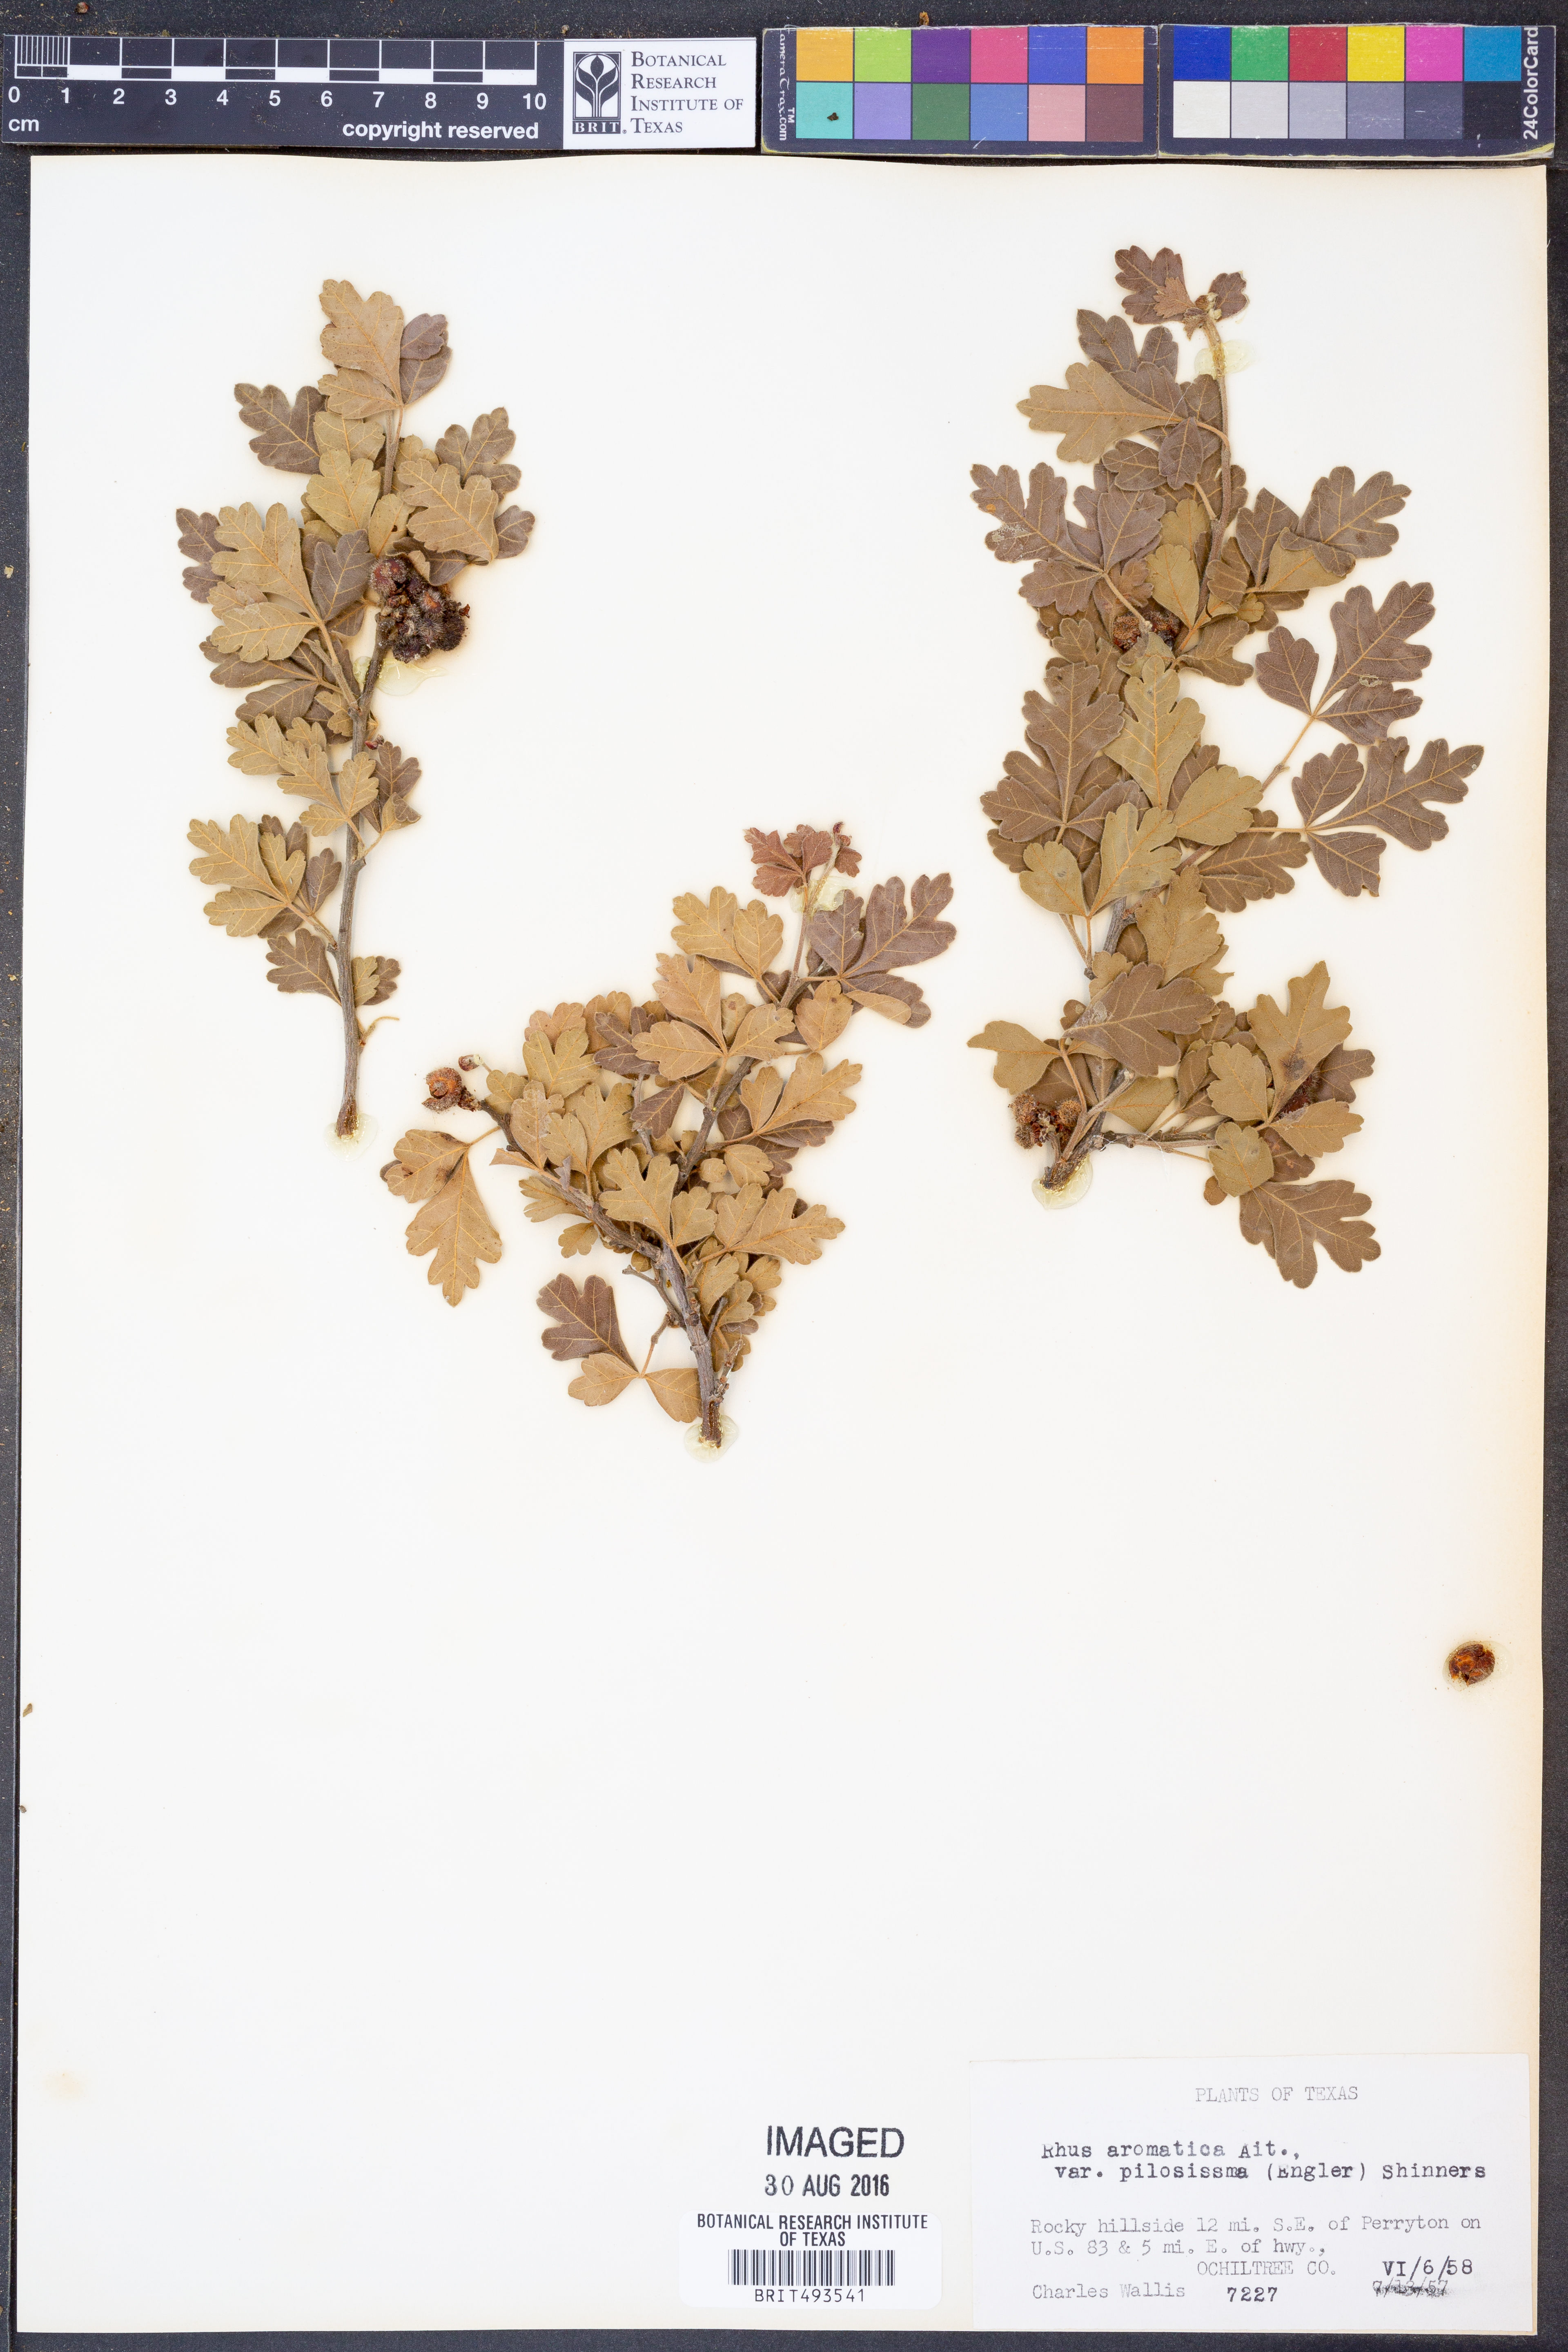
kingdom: Plantae
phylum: Tracheophyta
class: Magnoliopsida
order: Sapindales
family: Anacardiaceae
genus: Rhus
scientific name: Rhus trilobata
